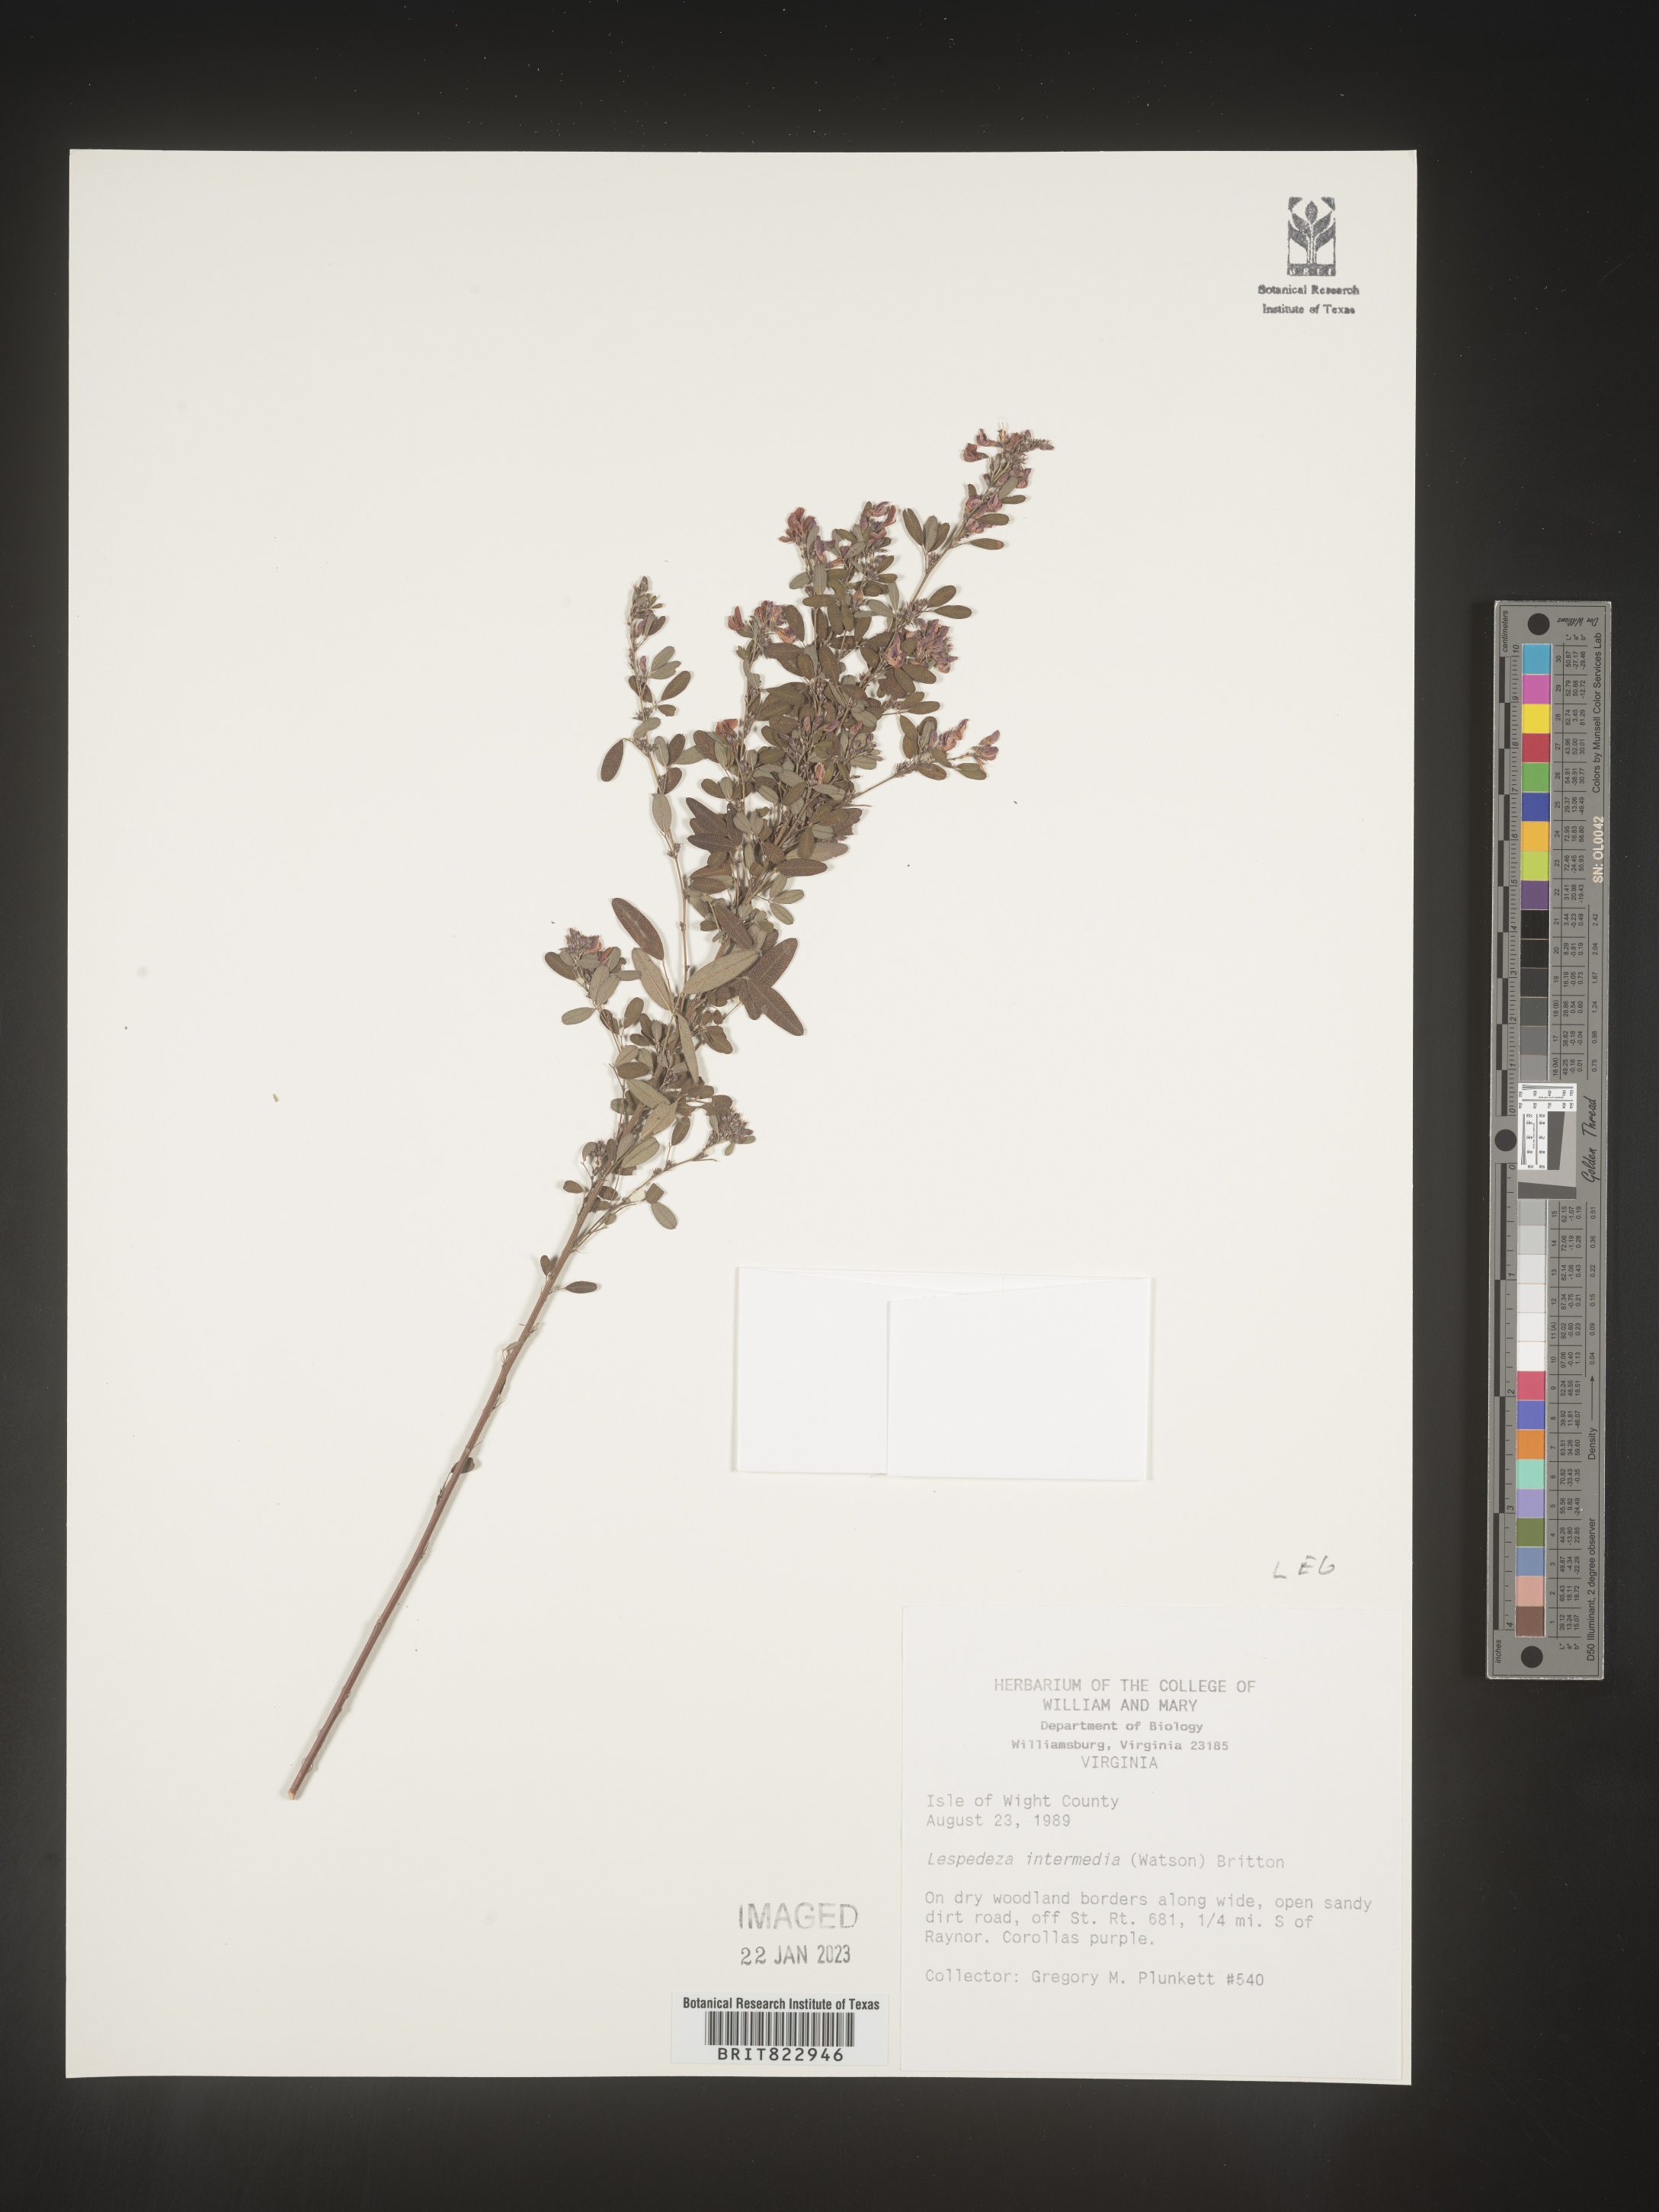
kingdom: Plantae
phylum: Tracheophyta
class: Magnoliopsida
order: Fabales
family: Fabaceae
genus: Lespedeza
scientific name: Lespedeza
